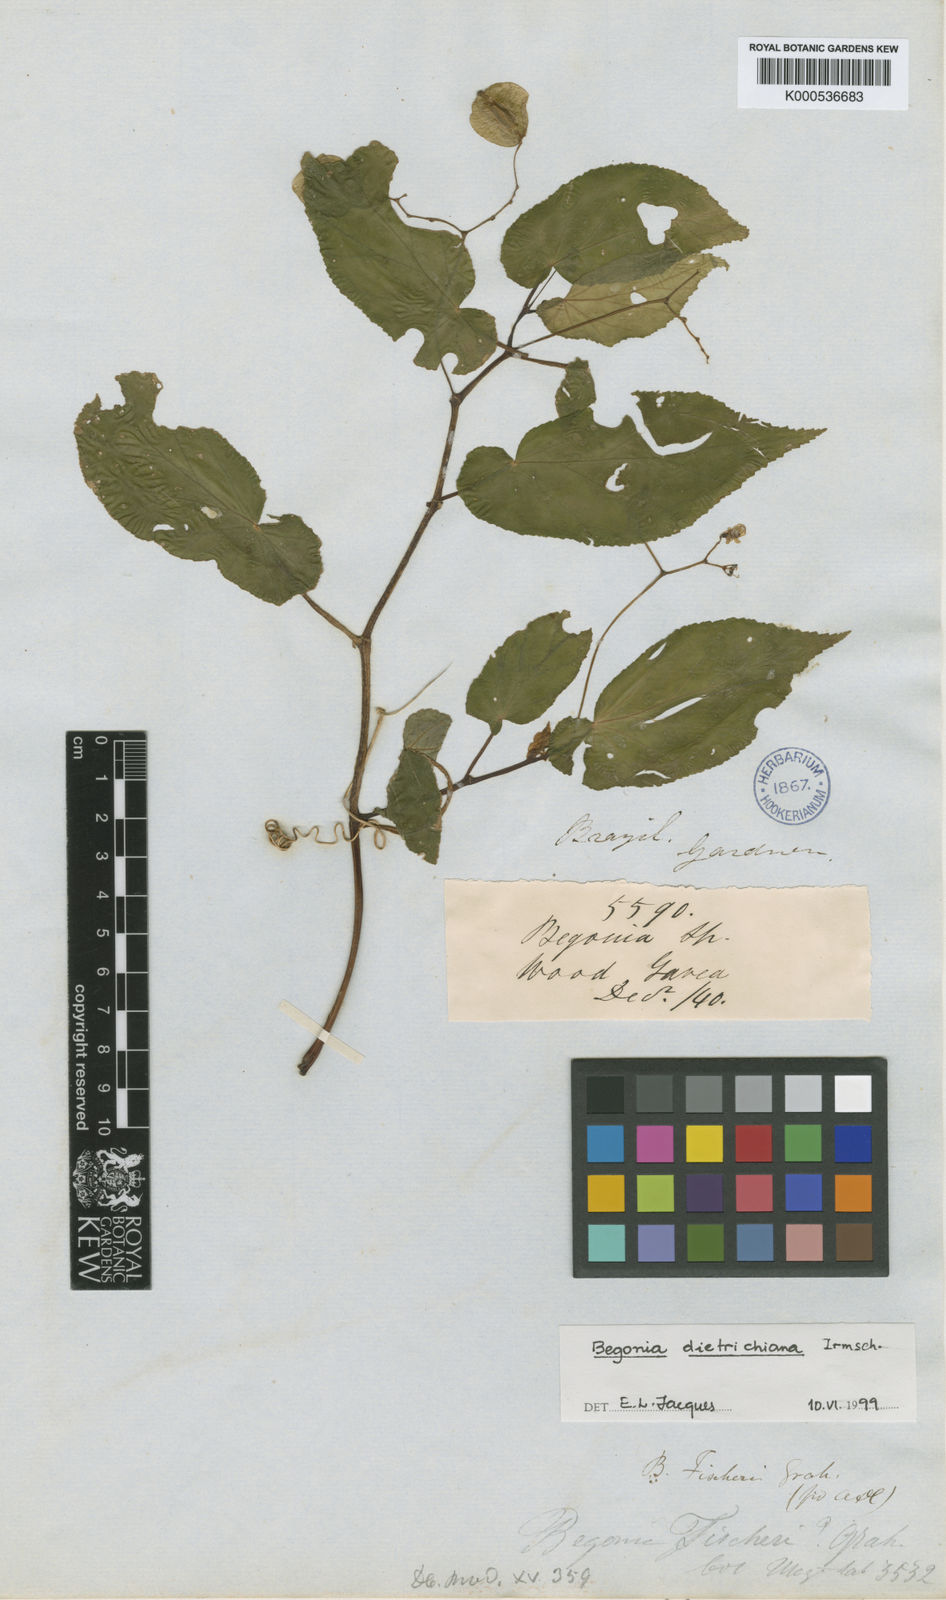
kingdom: Plantae
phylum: Tracheophyta
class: Magnoliopsida
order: Cucurbitales
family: Begoniaceae
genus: Begonia
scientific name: Begonia
